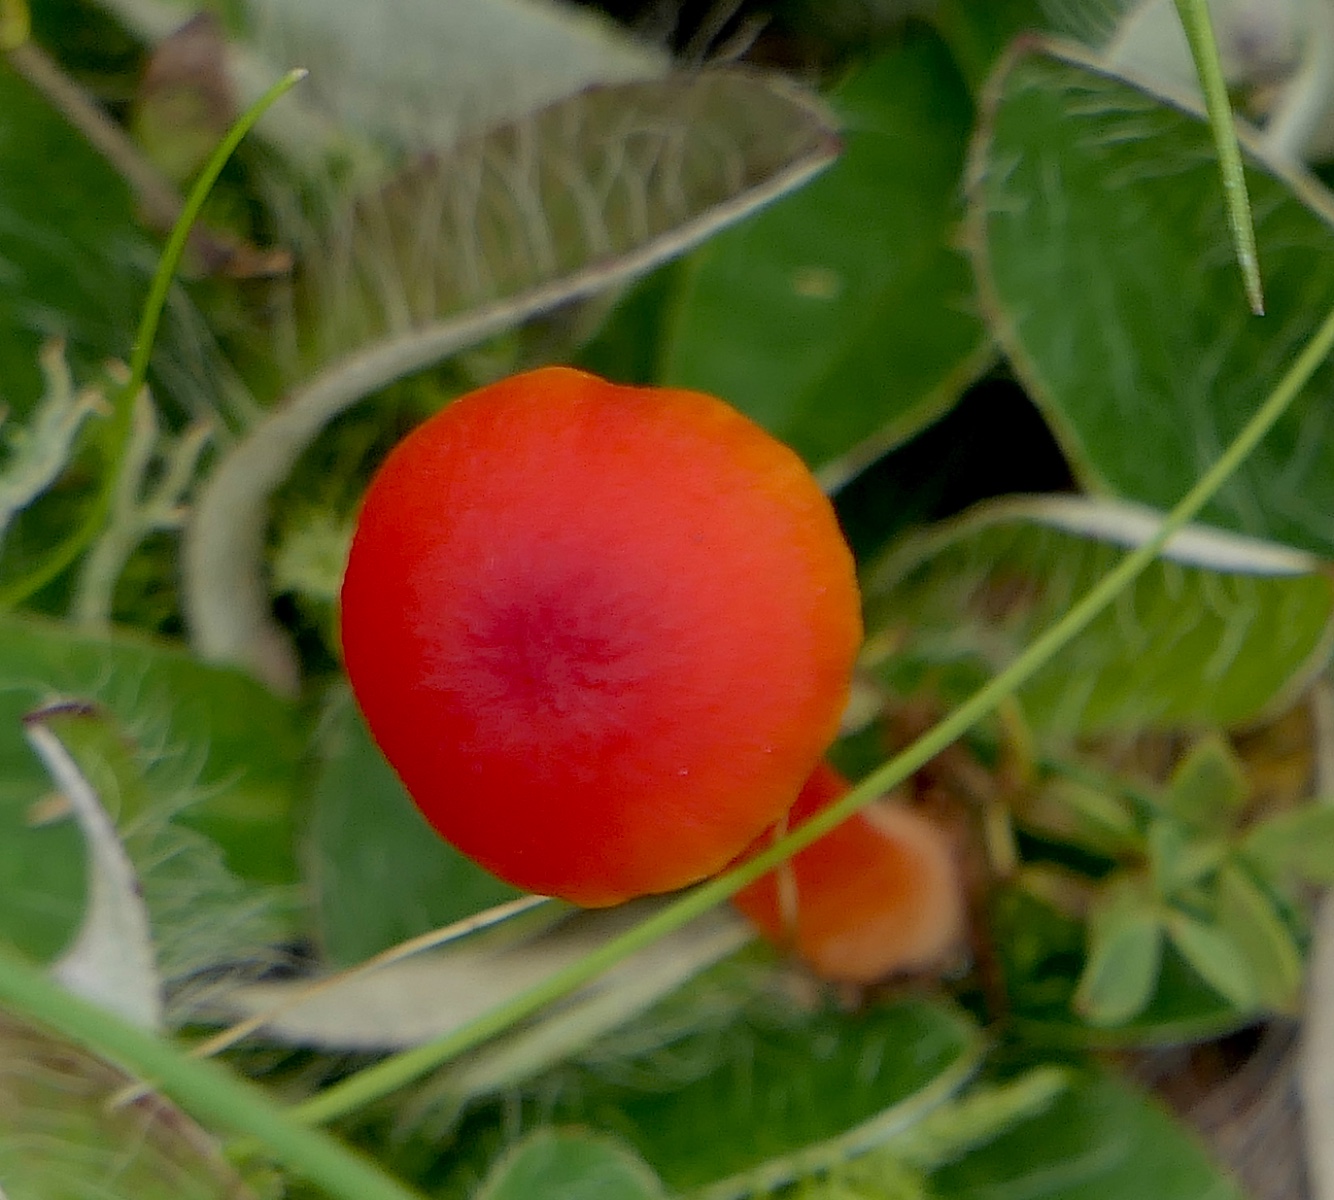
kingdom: Fungi
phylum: Basidiomycota
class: Agaricomycetes
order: Agaricales
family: Hygrophoraceae
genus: Hygrocybe
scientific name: Hygrocybe phaeococcinea
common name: sortdugget vokshat
